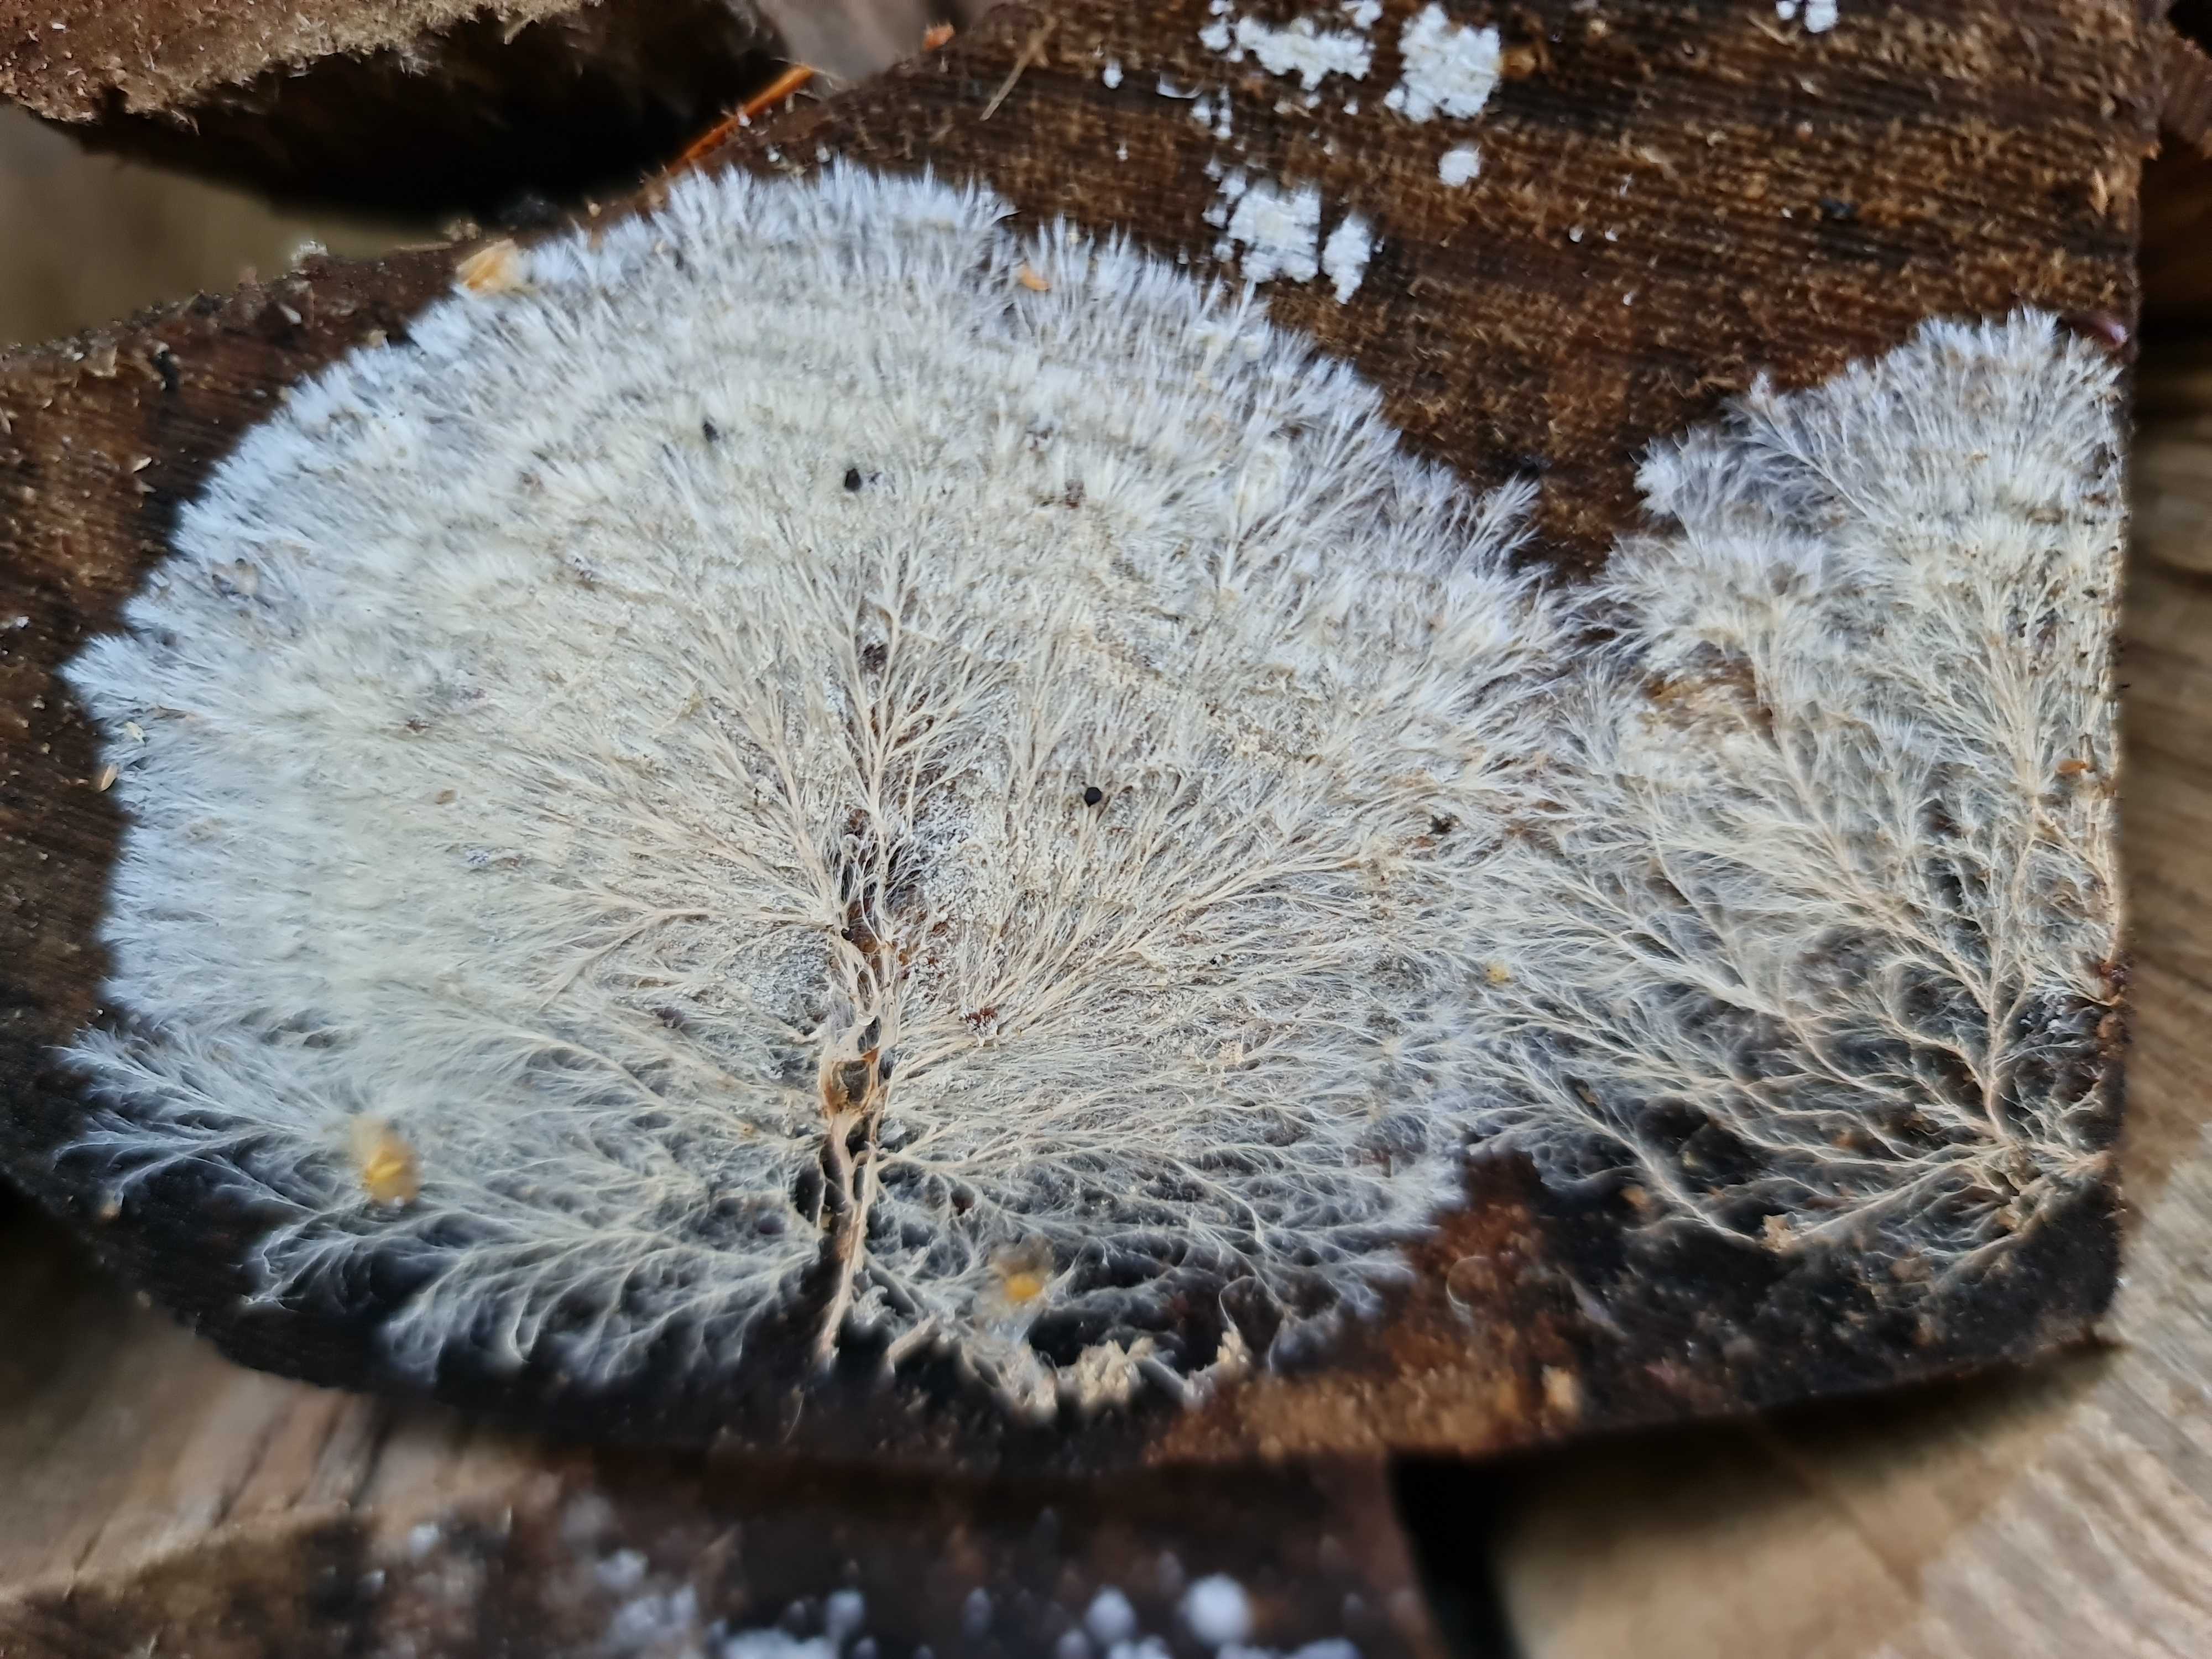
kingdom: Fungi
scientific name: Fungi
